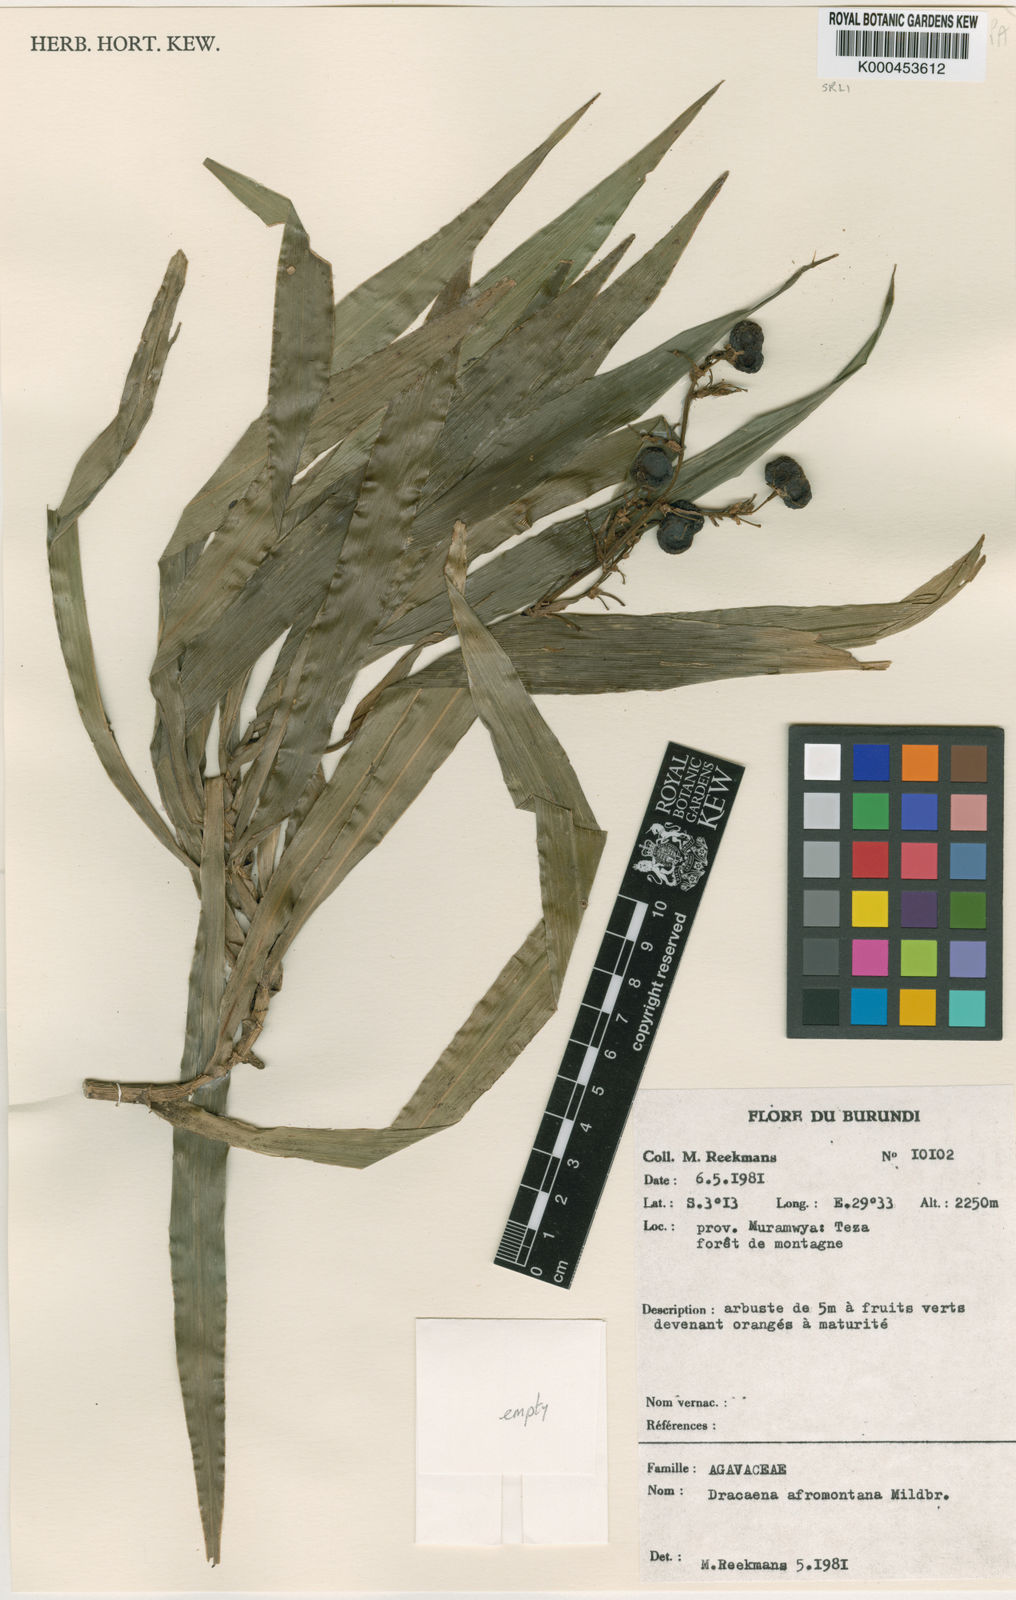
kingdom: Plantae
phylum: Tracheophyta
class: Liliopsida
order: Asparagales
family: Asparagaceae
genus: Dracaena
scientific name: Dracaena afromontana
